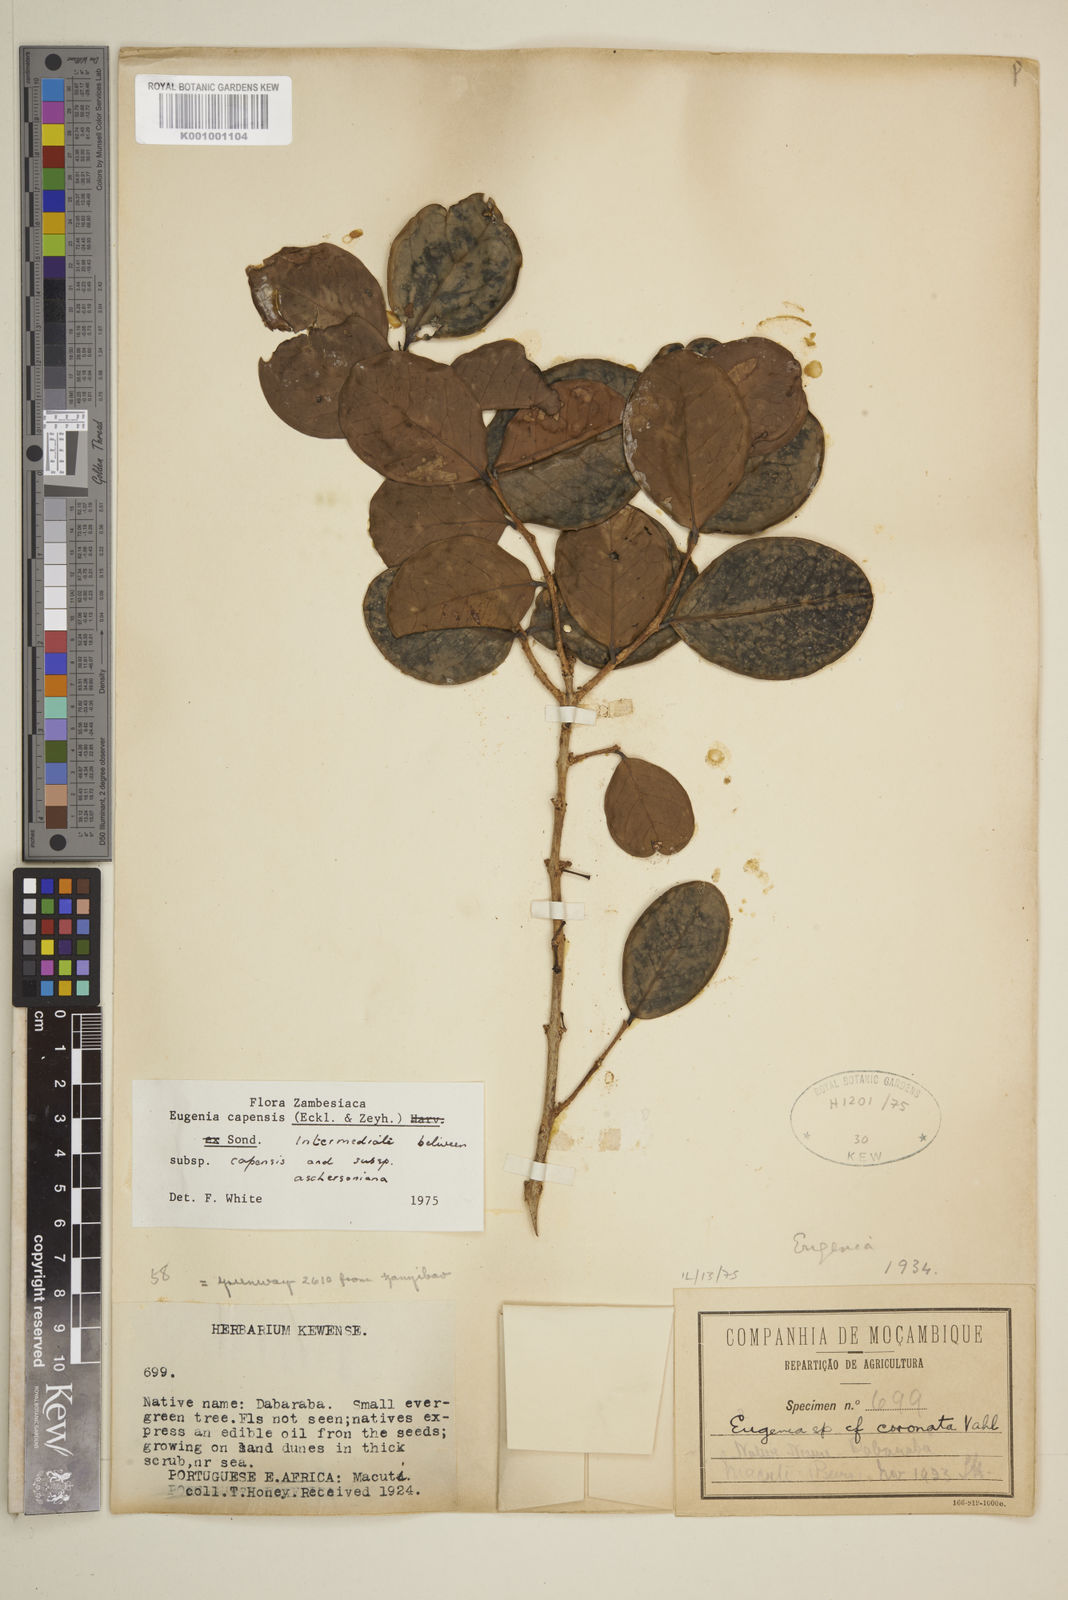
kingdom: Plantae
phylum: Tracheophyta
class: Magnoliopsida
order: Myrtales
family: Myrtaceae
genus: Eugenia
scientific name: Eugenia aschersoniana
